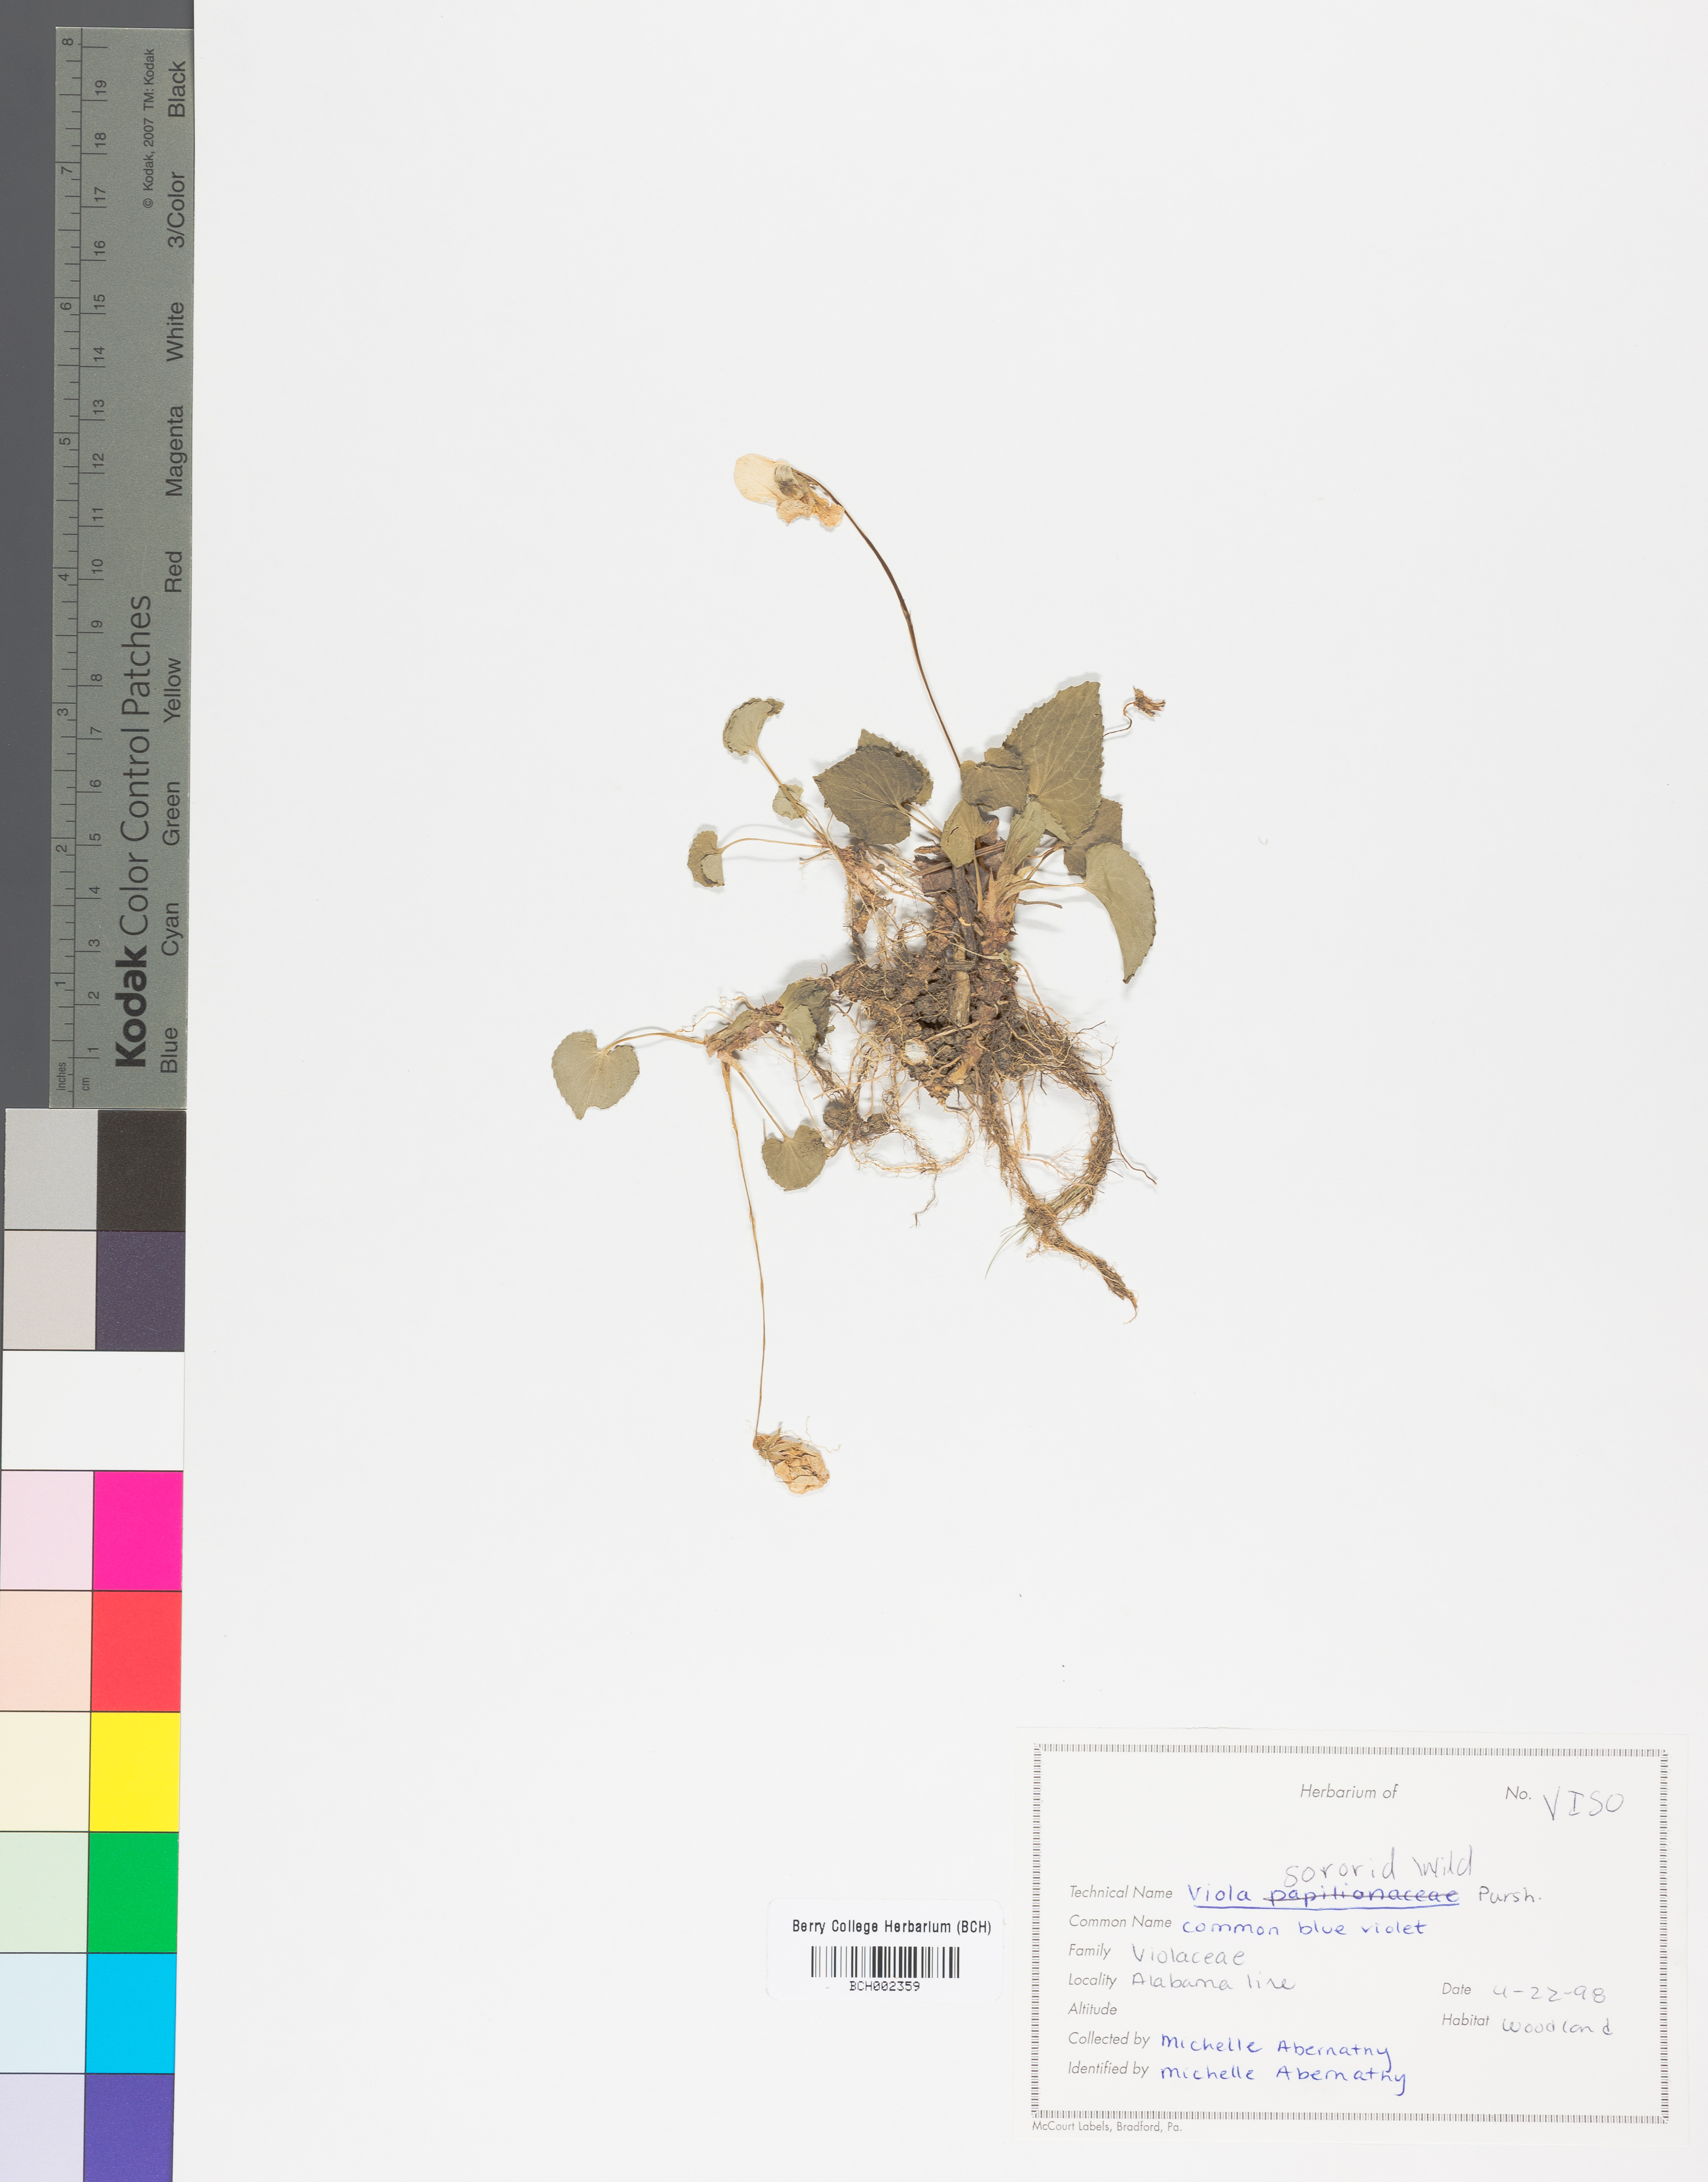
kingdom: Plantae
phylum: Tracheophyta
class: Magnoliopsida
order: Malpighiales
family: Violaceae
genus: Viola
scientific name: Viola sororia
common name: Dooryard violet
